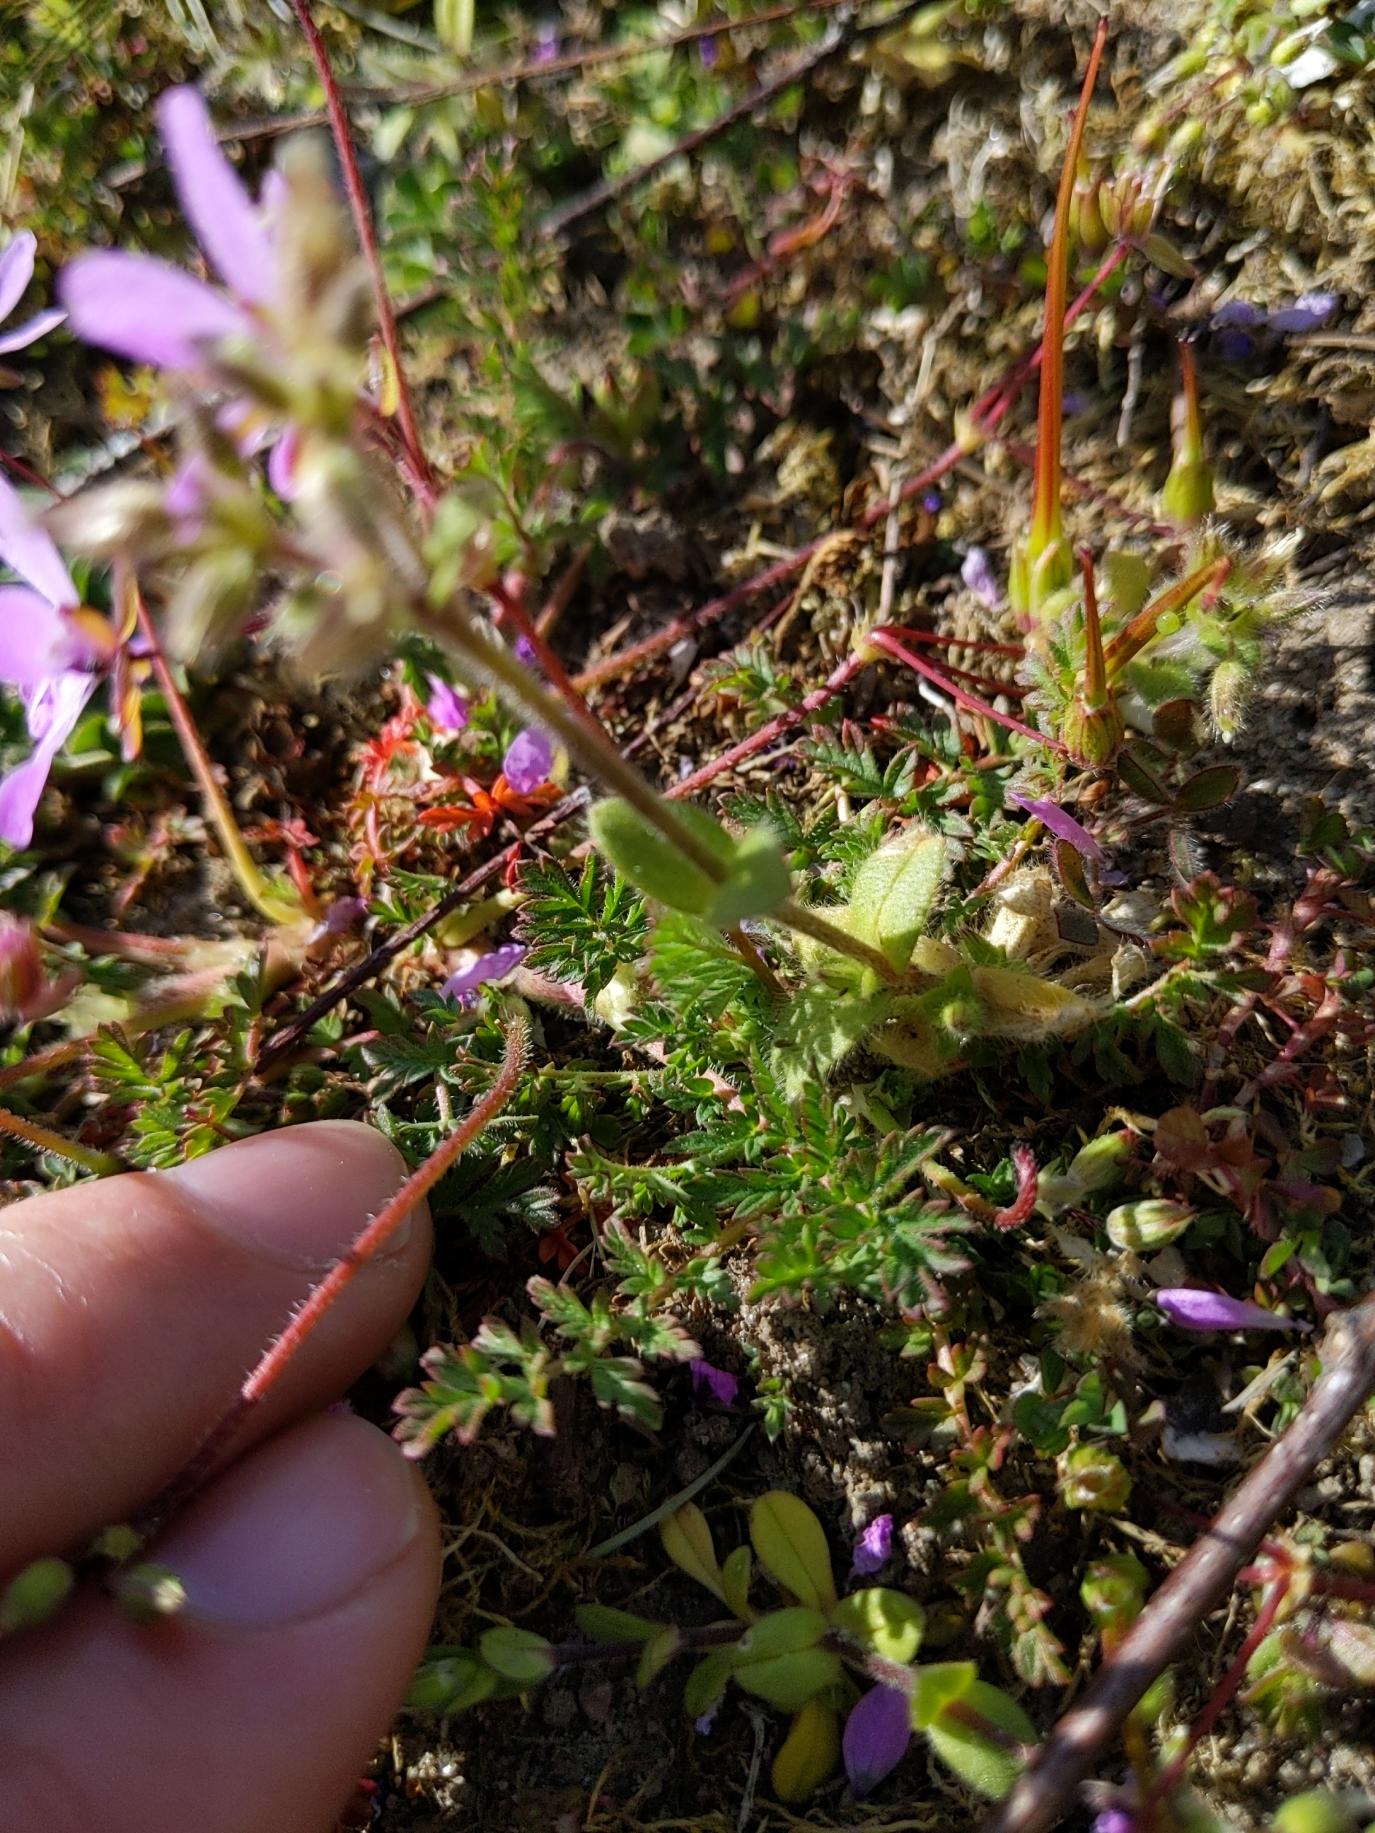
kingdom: Plantae
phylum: Tracheophyta
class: Magnoliopsida
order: Geraniales
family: Geraniaceae
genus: Erodium
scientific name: Erodium cicutarium
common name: Hejrenæb
